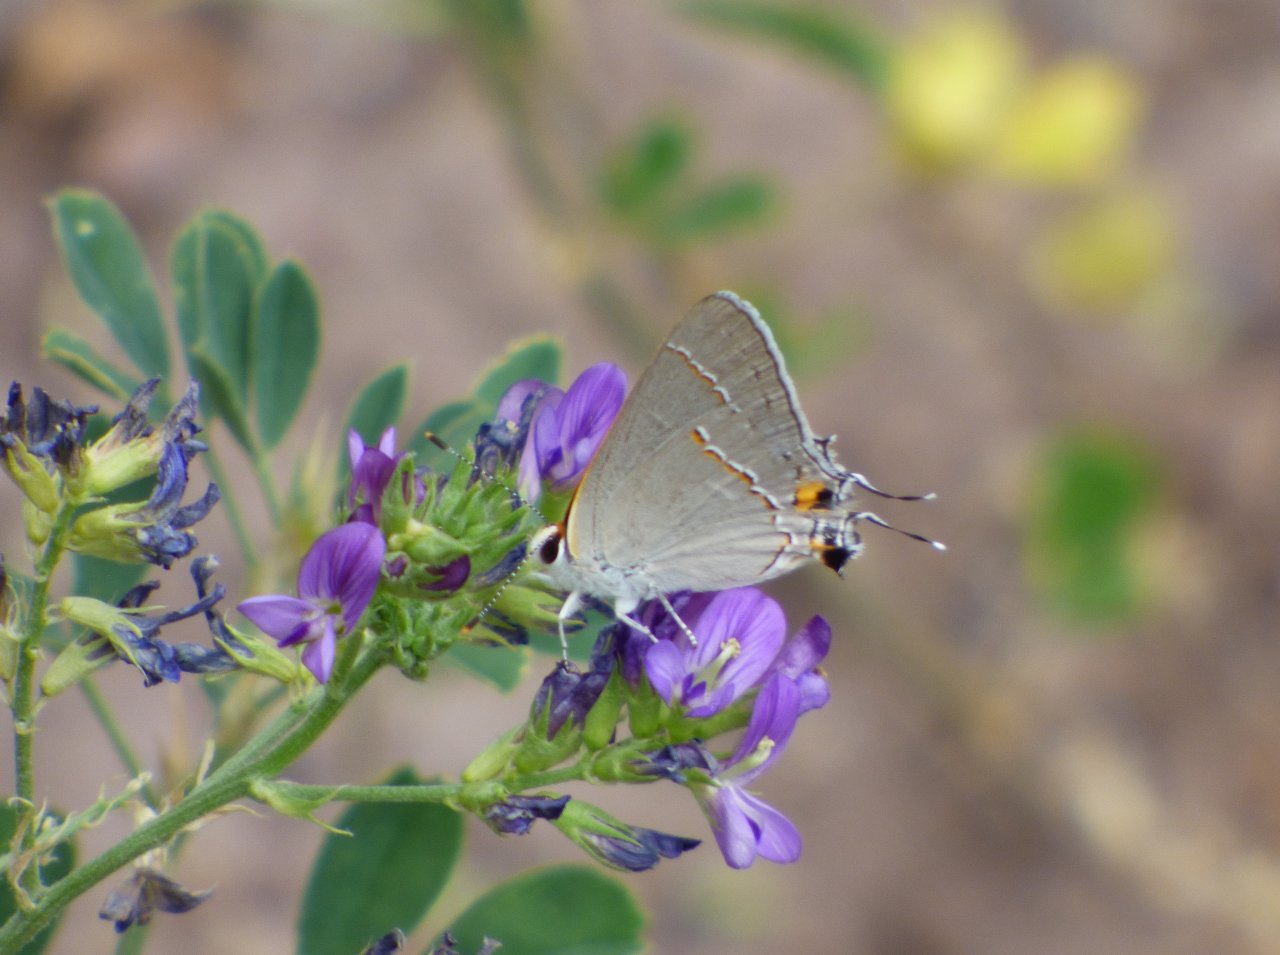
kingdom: Animalia
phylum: Arthropoda
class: Insecta
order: Lepidoptera
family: Lycaenidae
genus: Strymon
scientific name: Strymon melinus
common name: Gray Hairstreak
